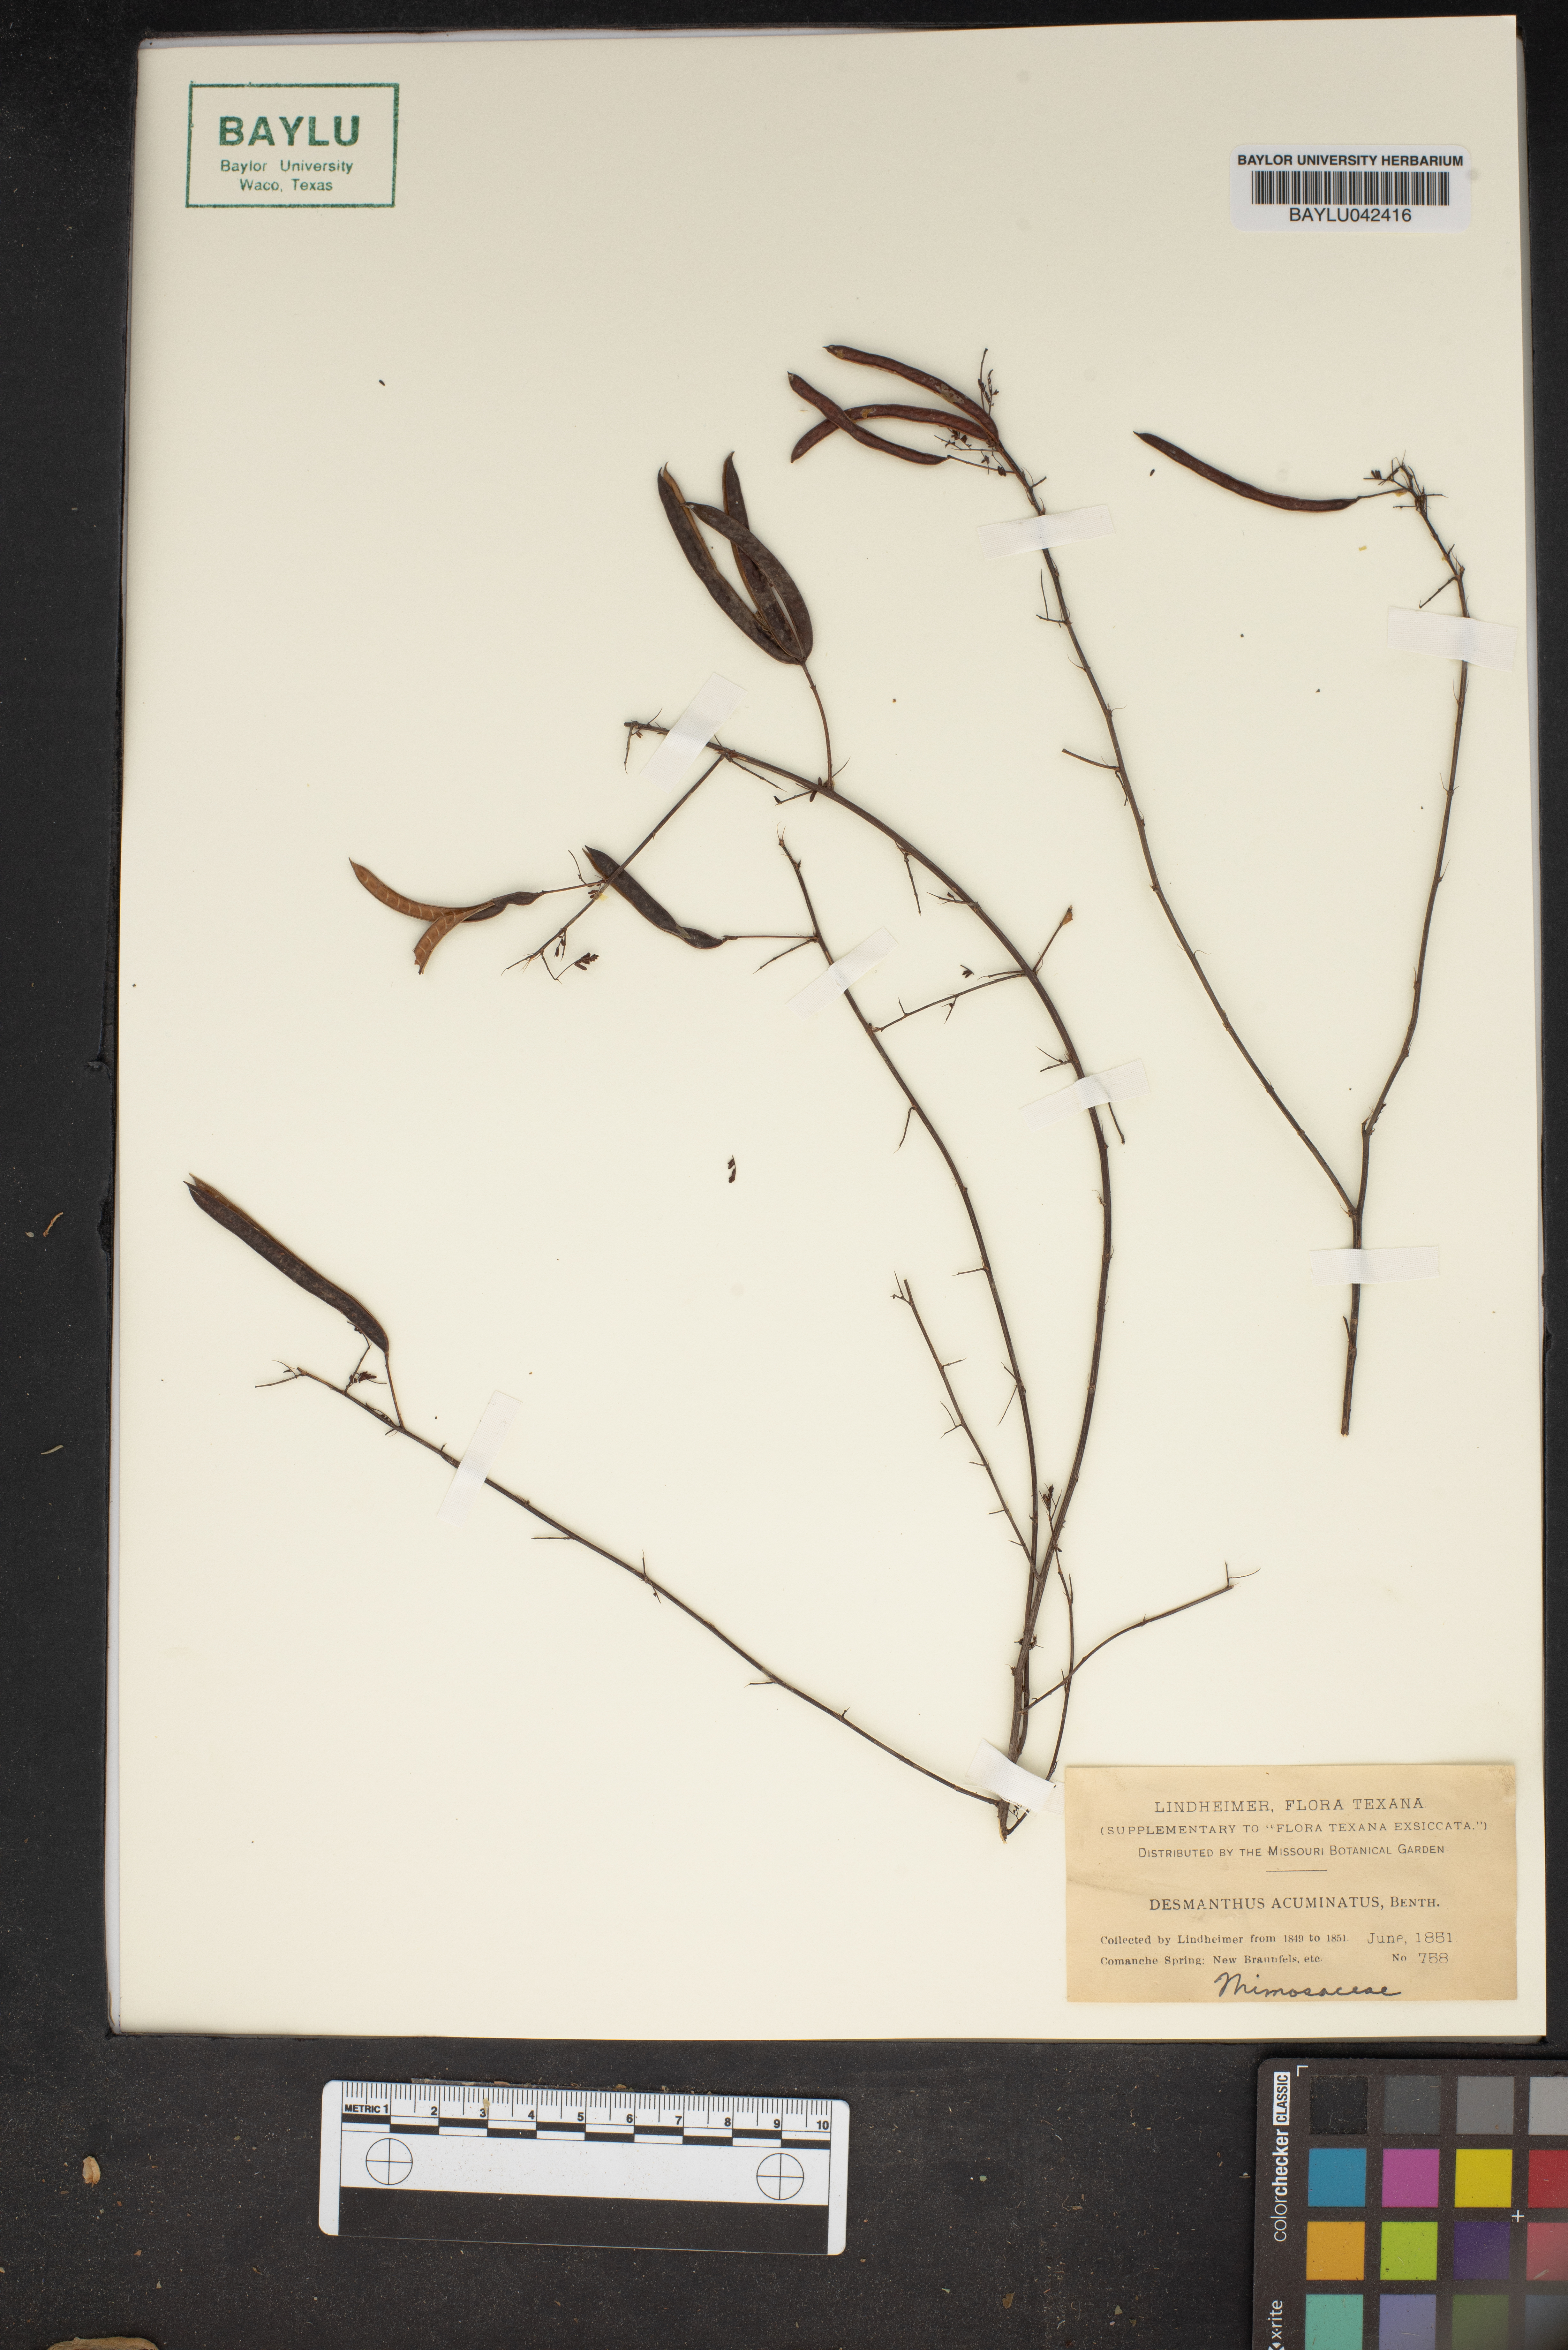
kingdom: Plantae
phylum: Tracheophyta
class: Magnoliopsida
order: Fabales
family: Fabaceae
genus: Desmanthus
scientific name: Desmanthus acuminatus
